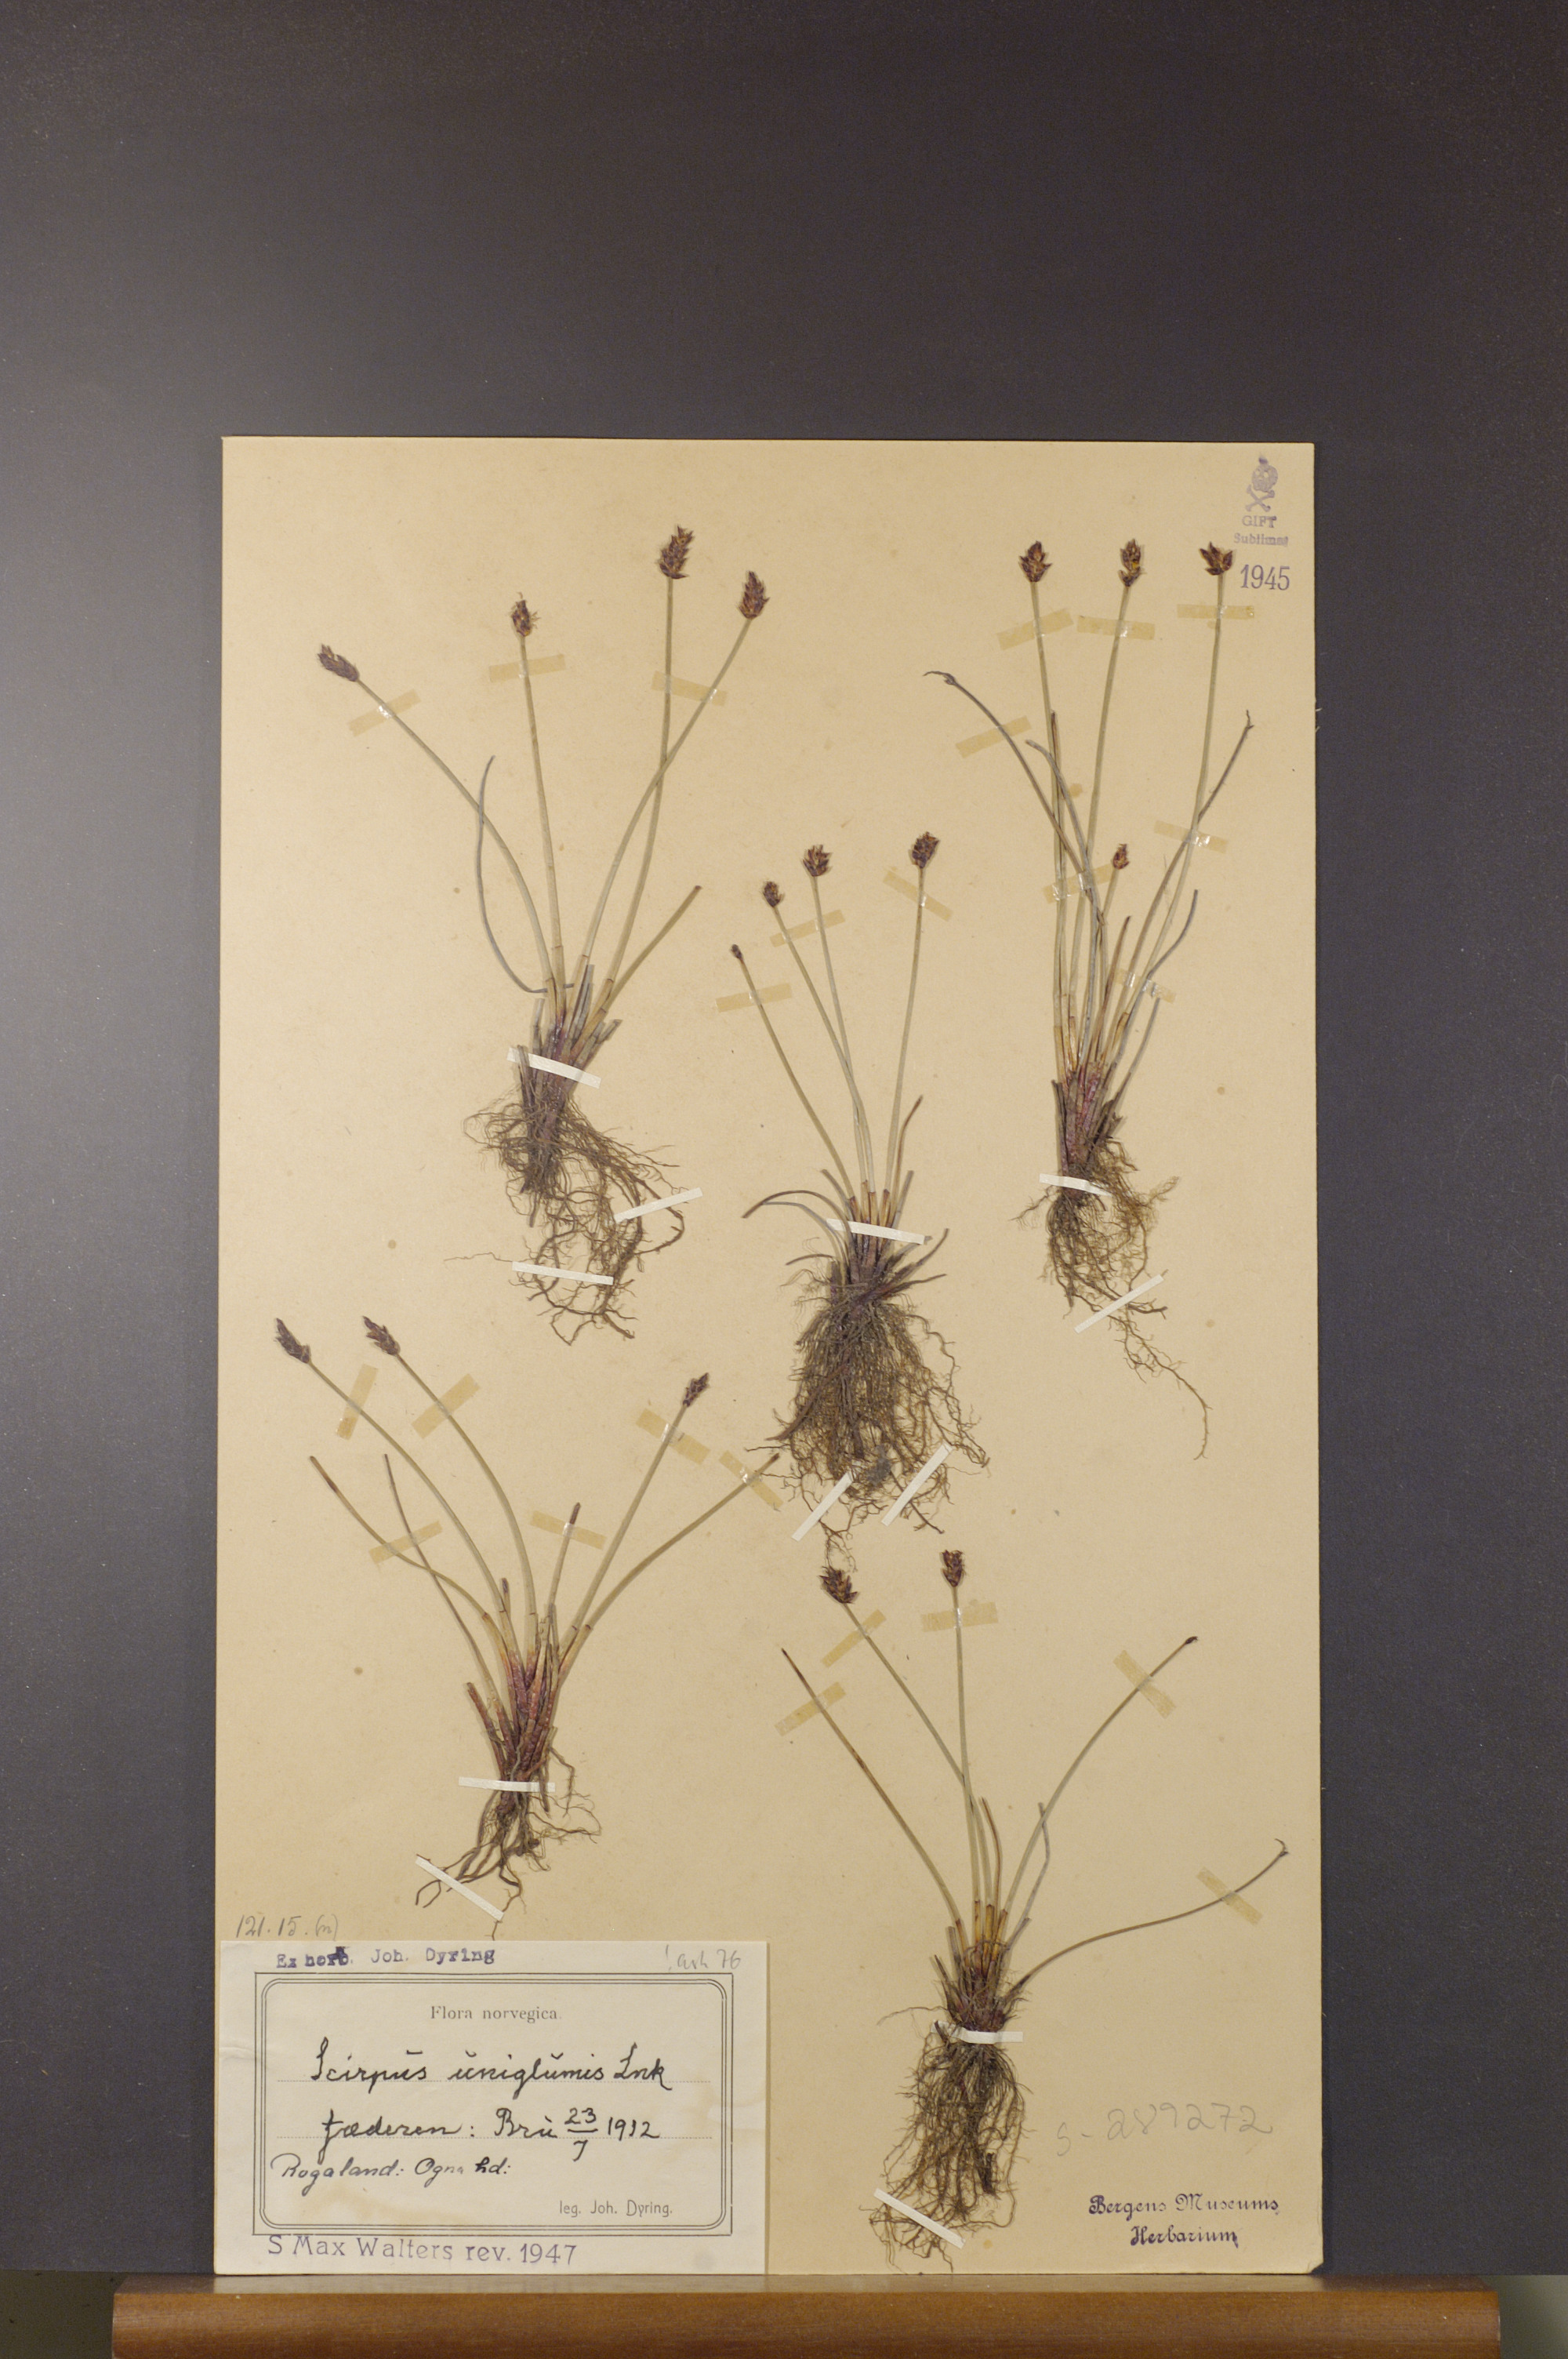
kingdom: Plantae
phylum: Tracheophyta
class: Liliopsida
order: Poales
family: Cyperaceae
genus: Eleocharis
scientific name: Eleocharis uniglumis
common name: Slender spike-rush
